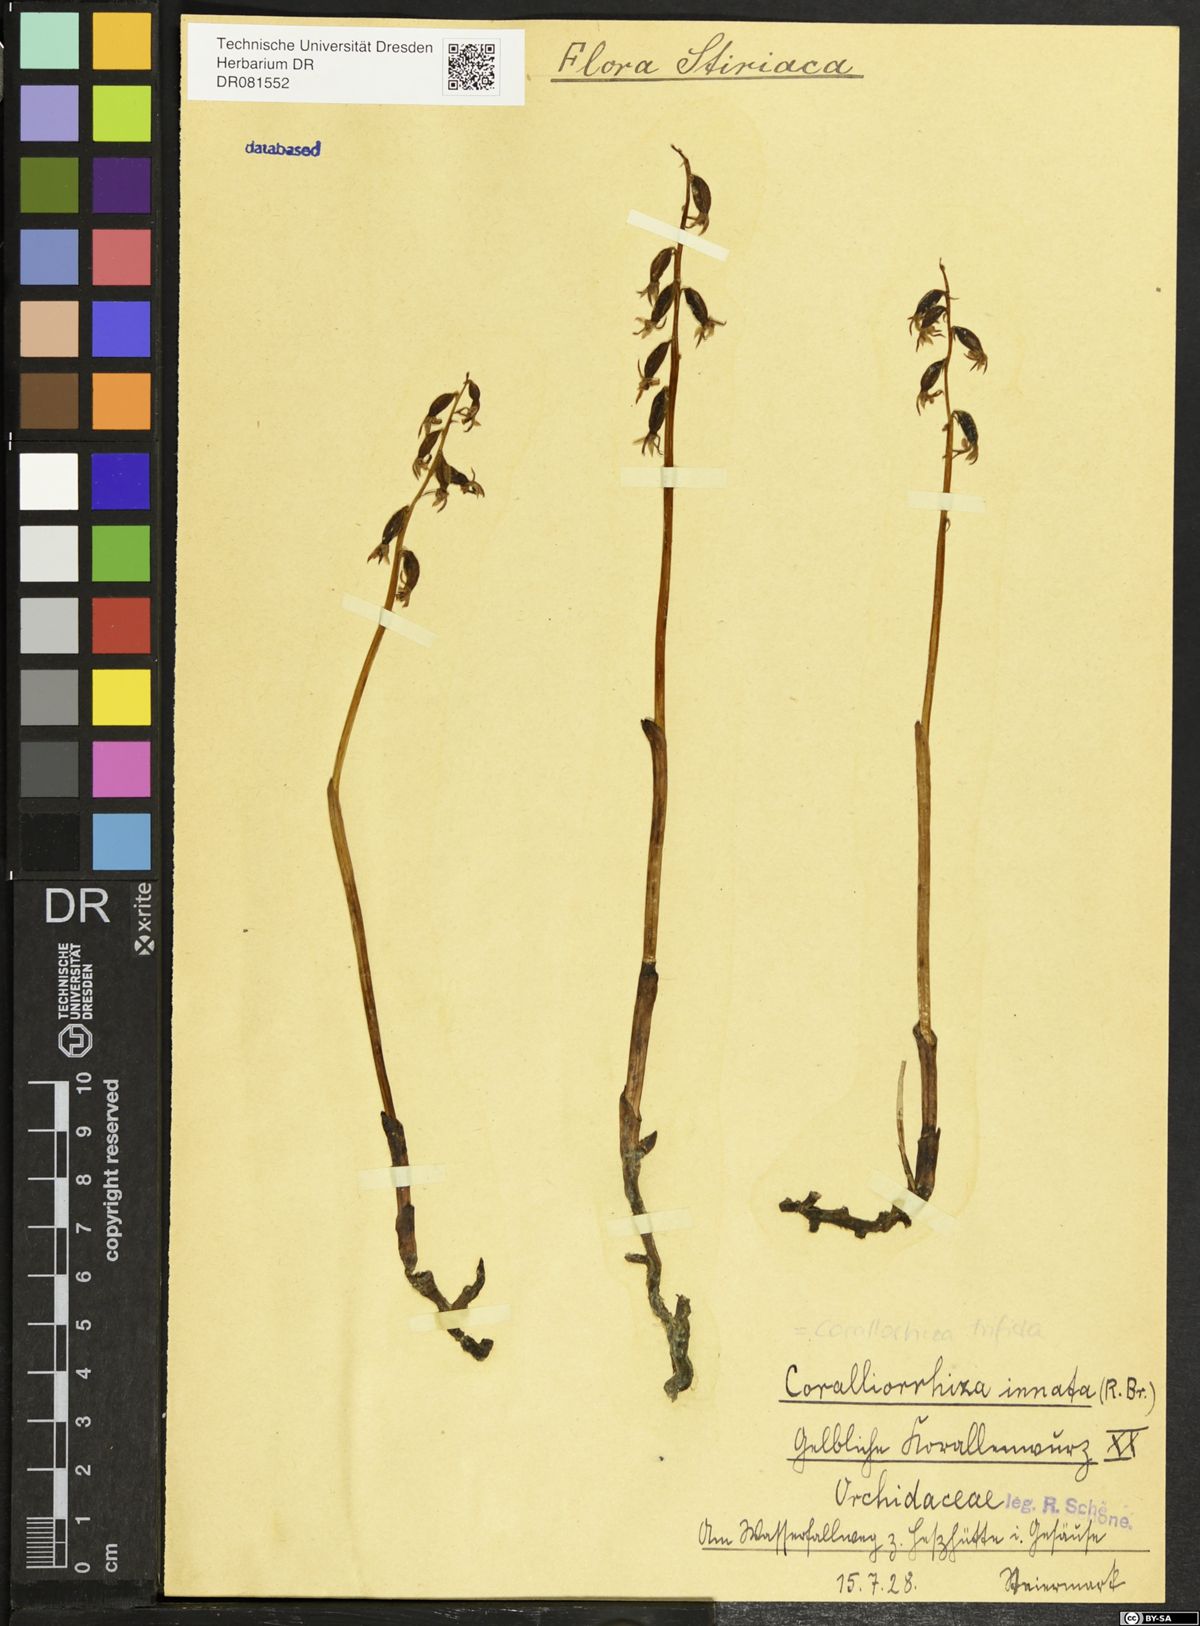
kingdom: Plantae
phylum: Tracheophyta
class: Liliopsida
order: Asparagales
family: Orchidaceae
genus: Corallorhiza
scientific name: Corallorhiza trifida
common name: Yellow coralroot
